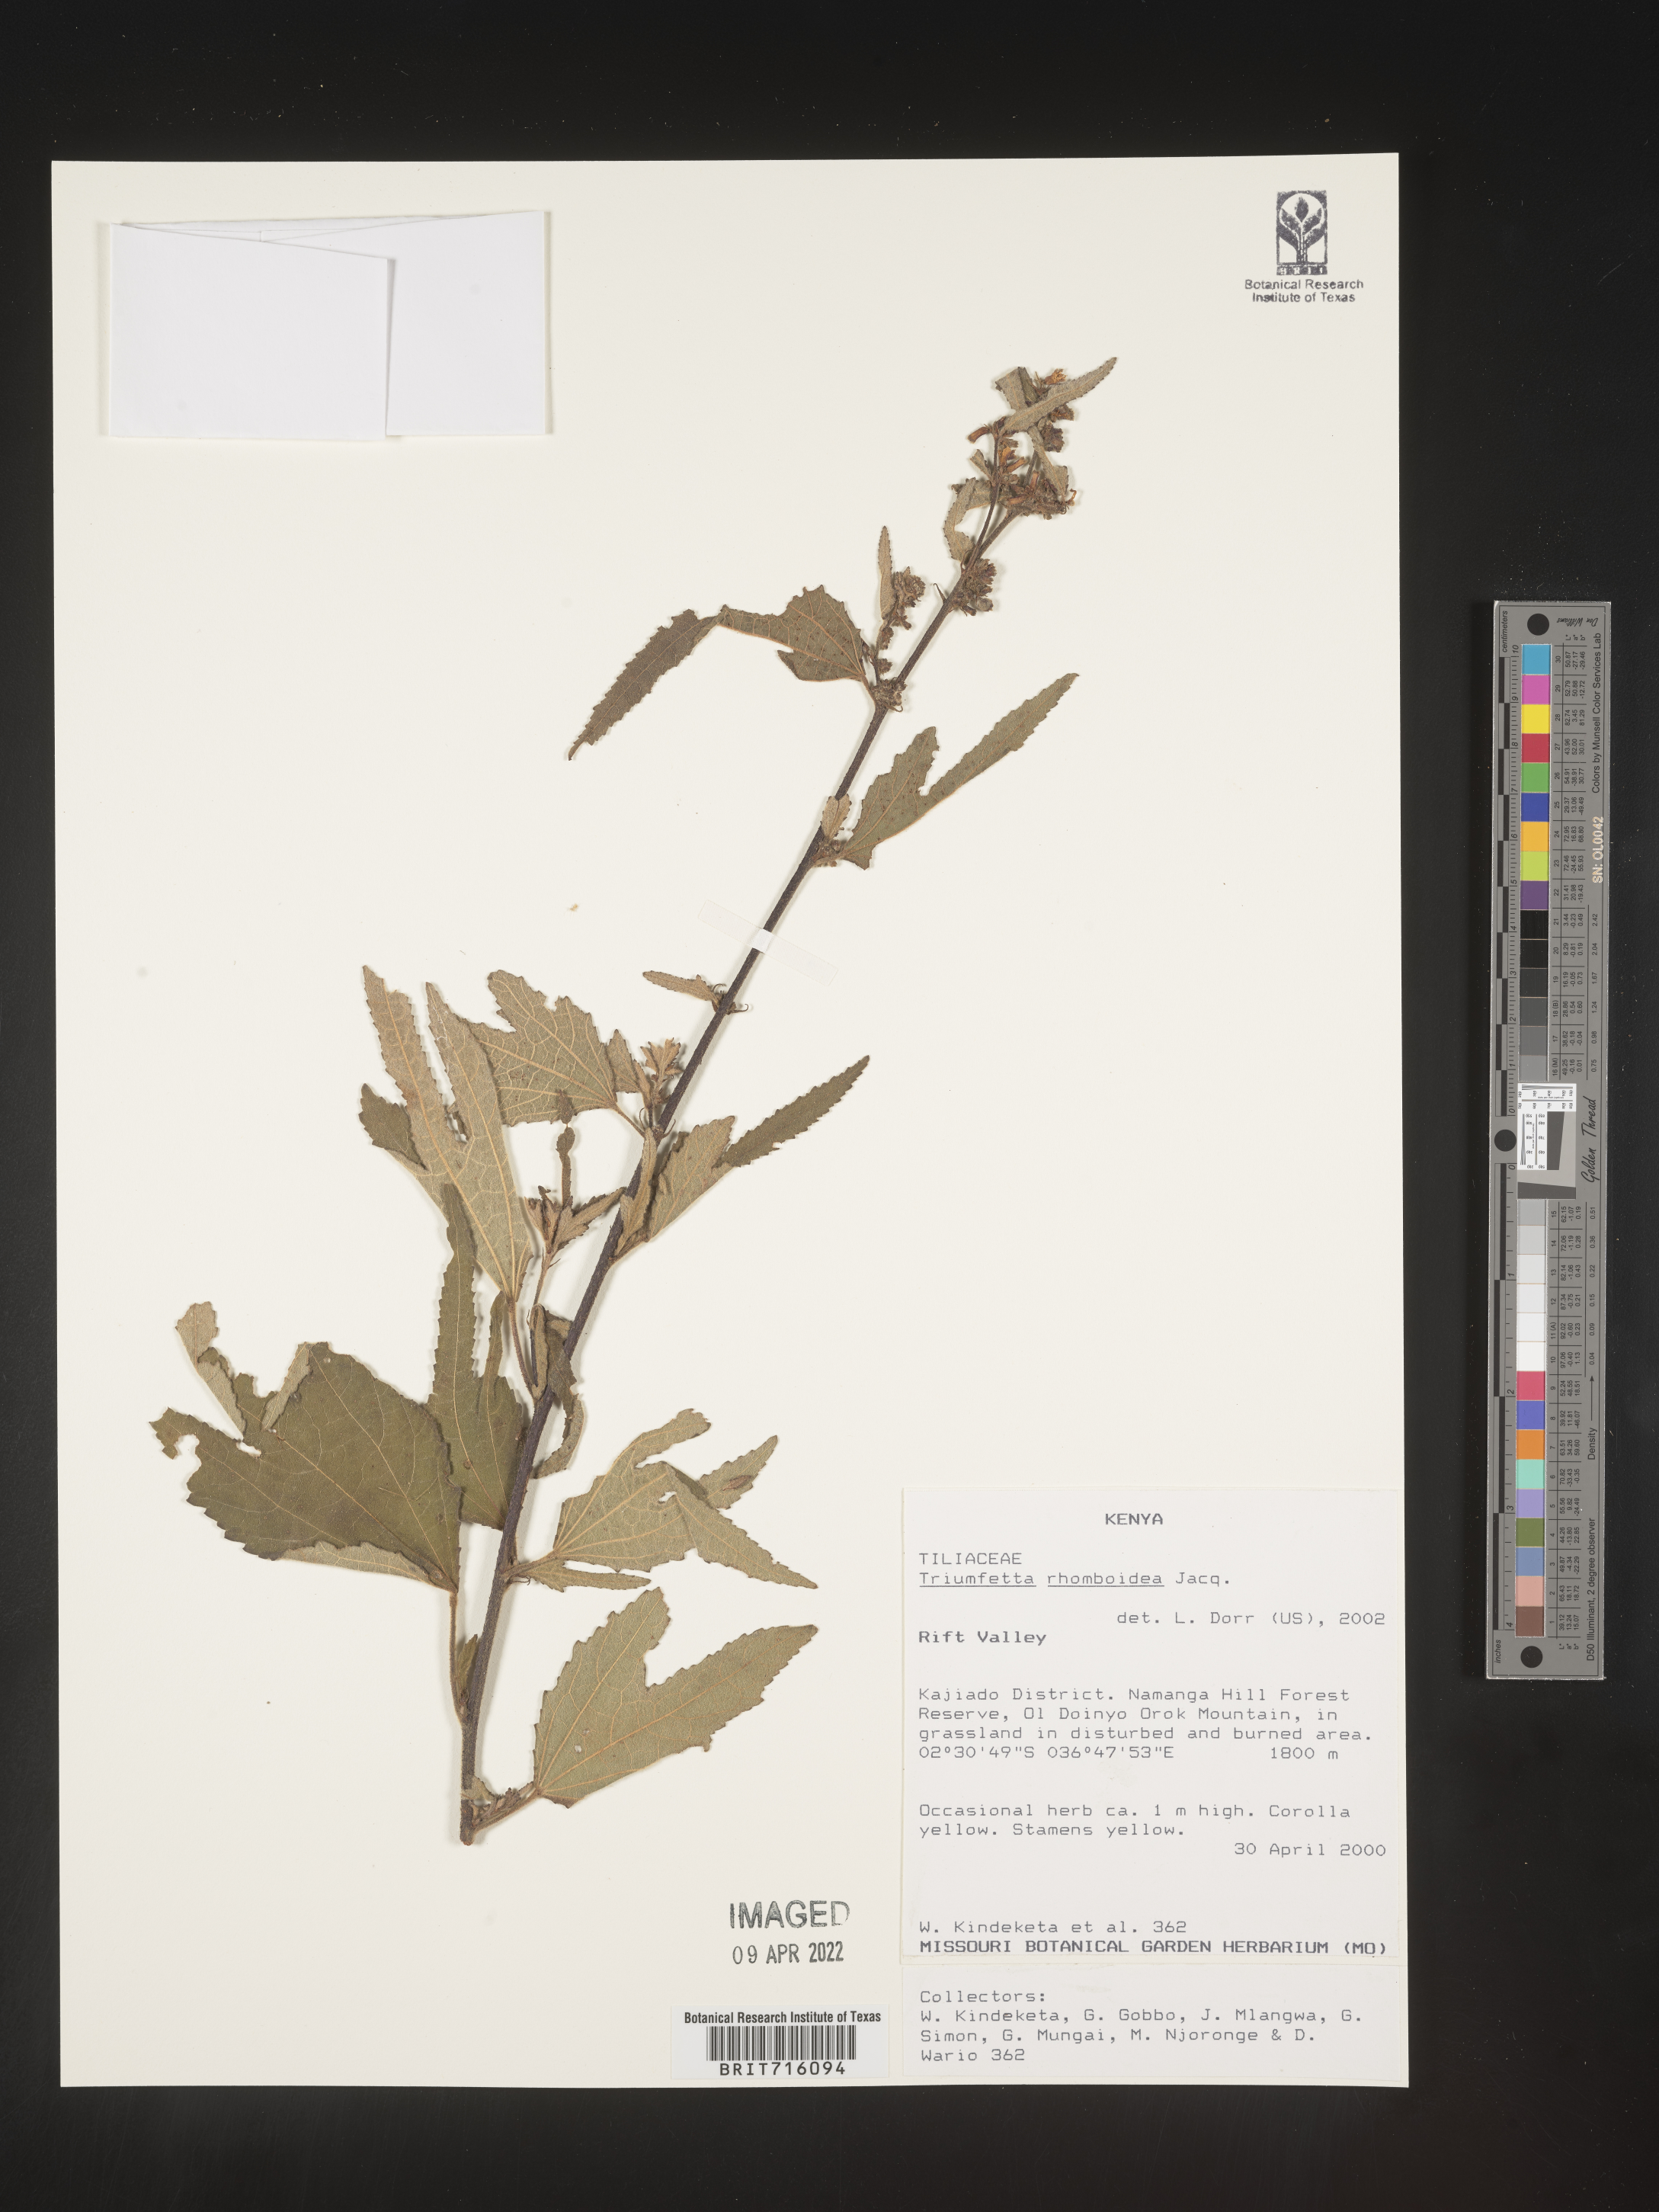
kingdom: Plantae
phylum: Tracheophyta
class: Magnoliopsida
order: Malvales
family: Malvaceae
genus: Triumfetta
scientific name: Triumfetta rhomboidea
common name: Diamond burbark
